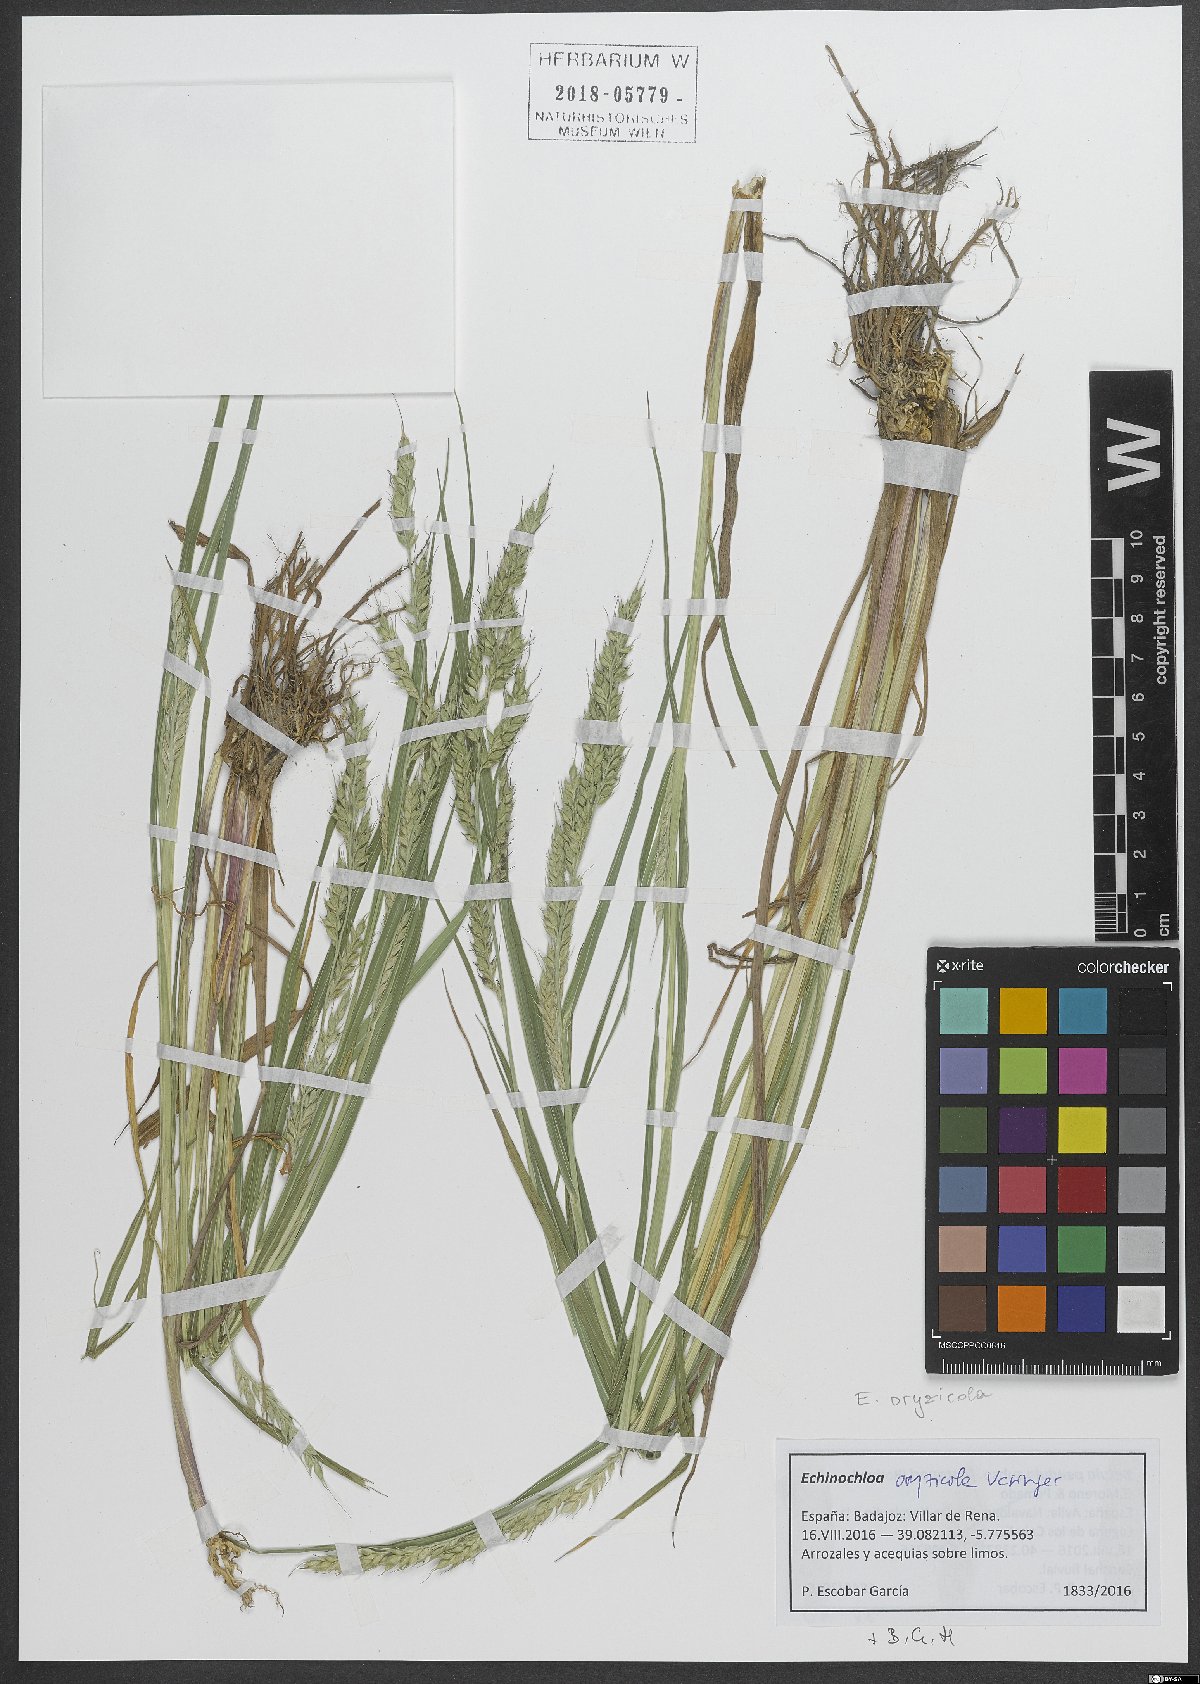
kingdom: Plantae
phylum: Tracheophyta
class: Liliopsida
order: Poales
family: Poaceae
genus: Echinochloa
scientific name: Echinochloa oryzoides
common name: Early water grass
